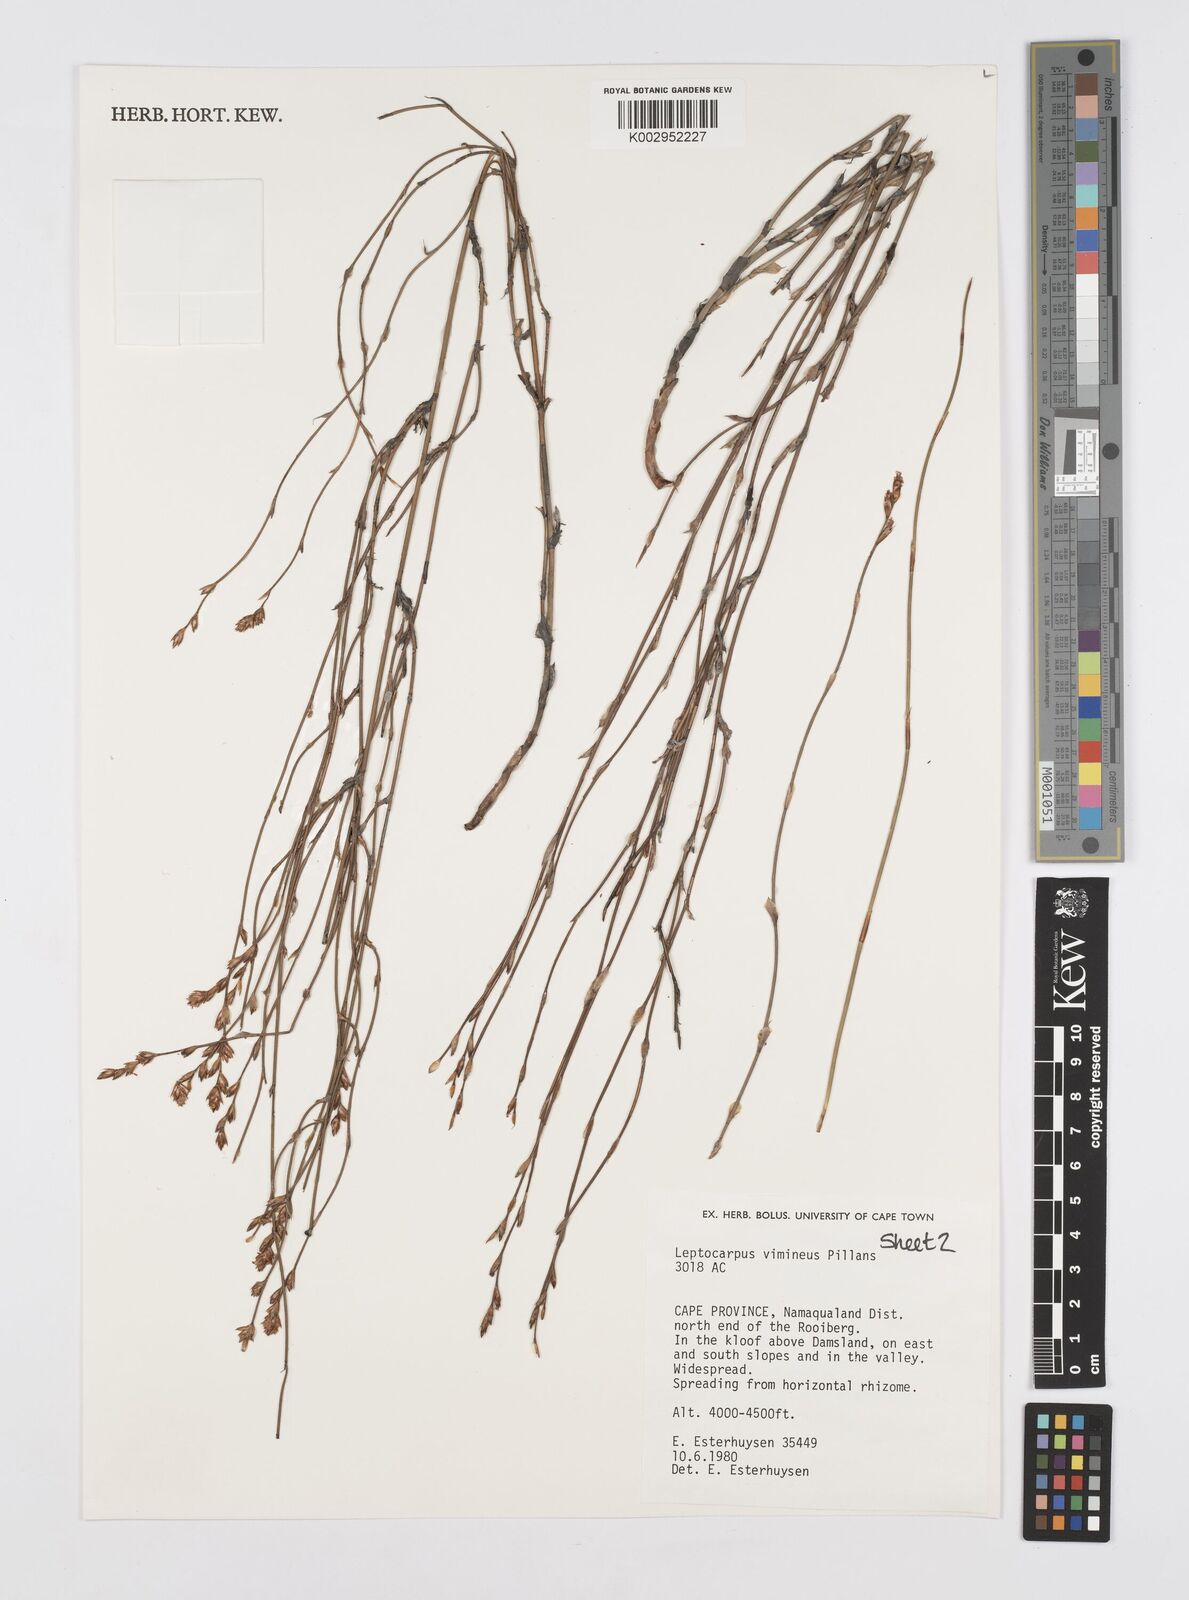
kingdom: Plantae
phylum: Tracheophyta
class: Liliopsida
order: Poales
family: Restionaceae
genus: Restio
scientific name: Restio vimineus
